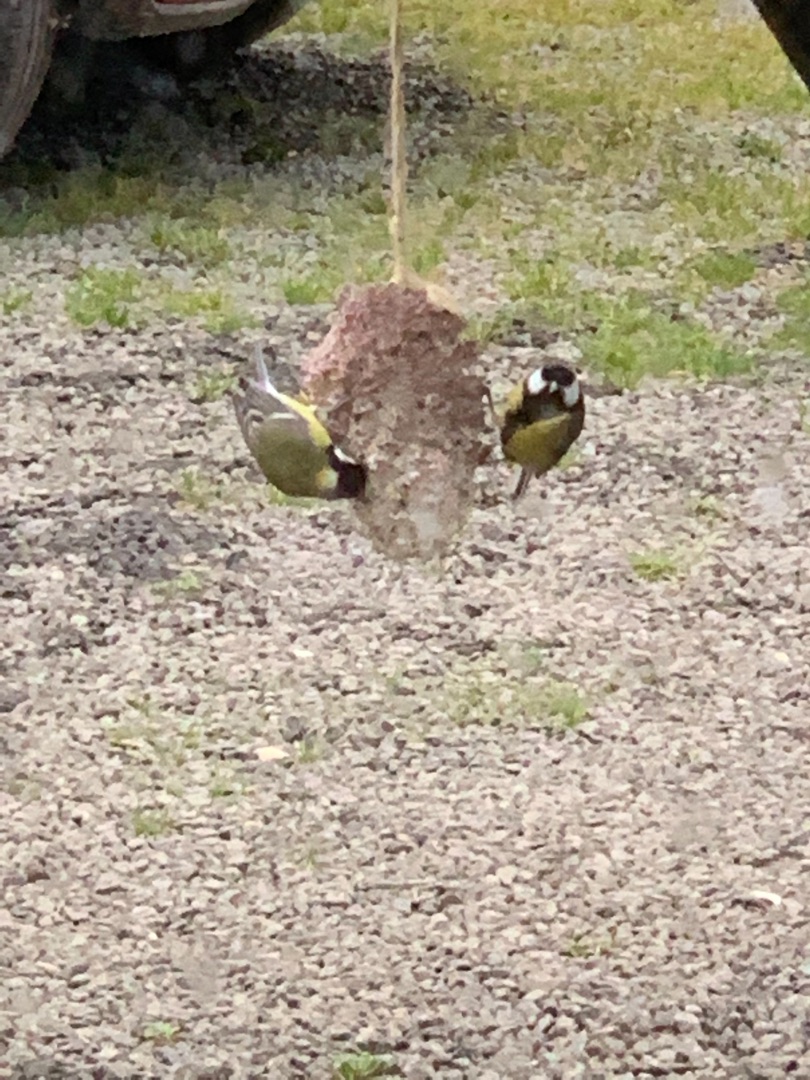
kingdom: Animalia
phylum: Chordata
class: Aves
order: Passeriformes
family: Paridae
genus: Parus
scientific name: Parus major
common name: Musvit
